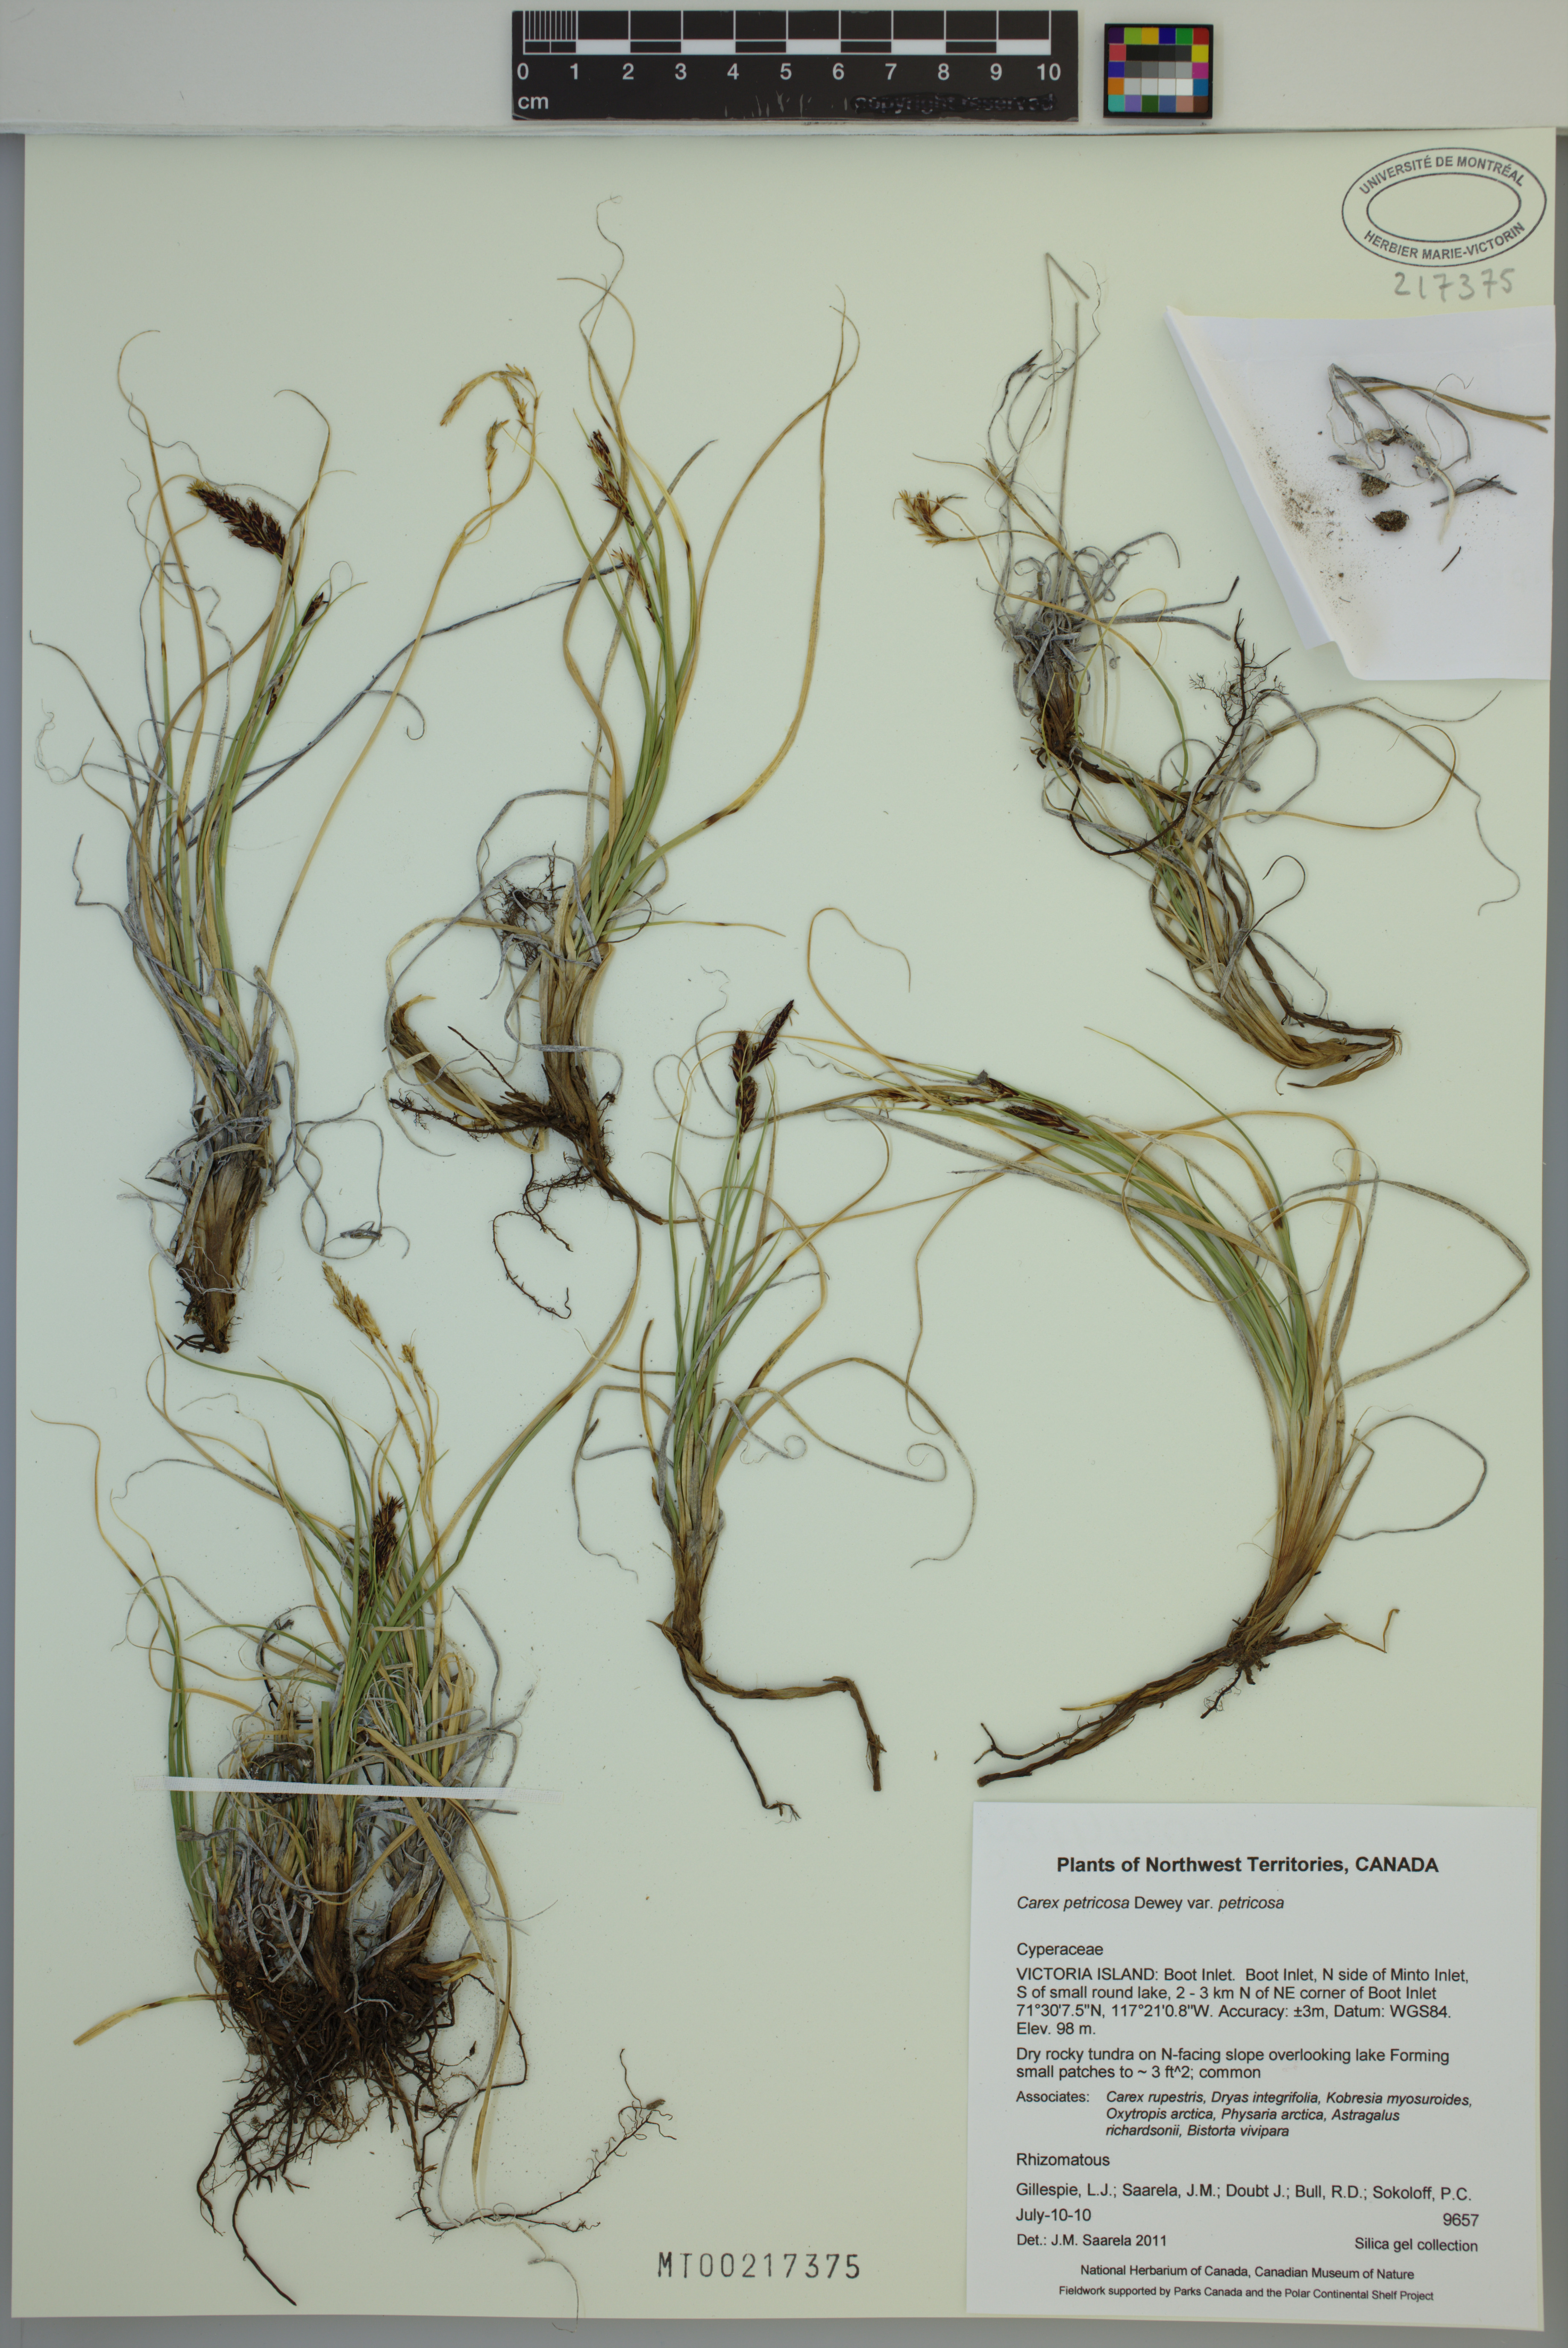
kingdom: Plantae
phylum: Tracheophyta
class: Liliopsida
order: Poales
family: Cyperaceae
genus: Carex
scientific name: Carex petricosa
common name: Rock sedge
